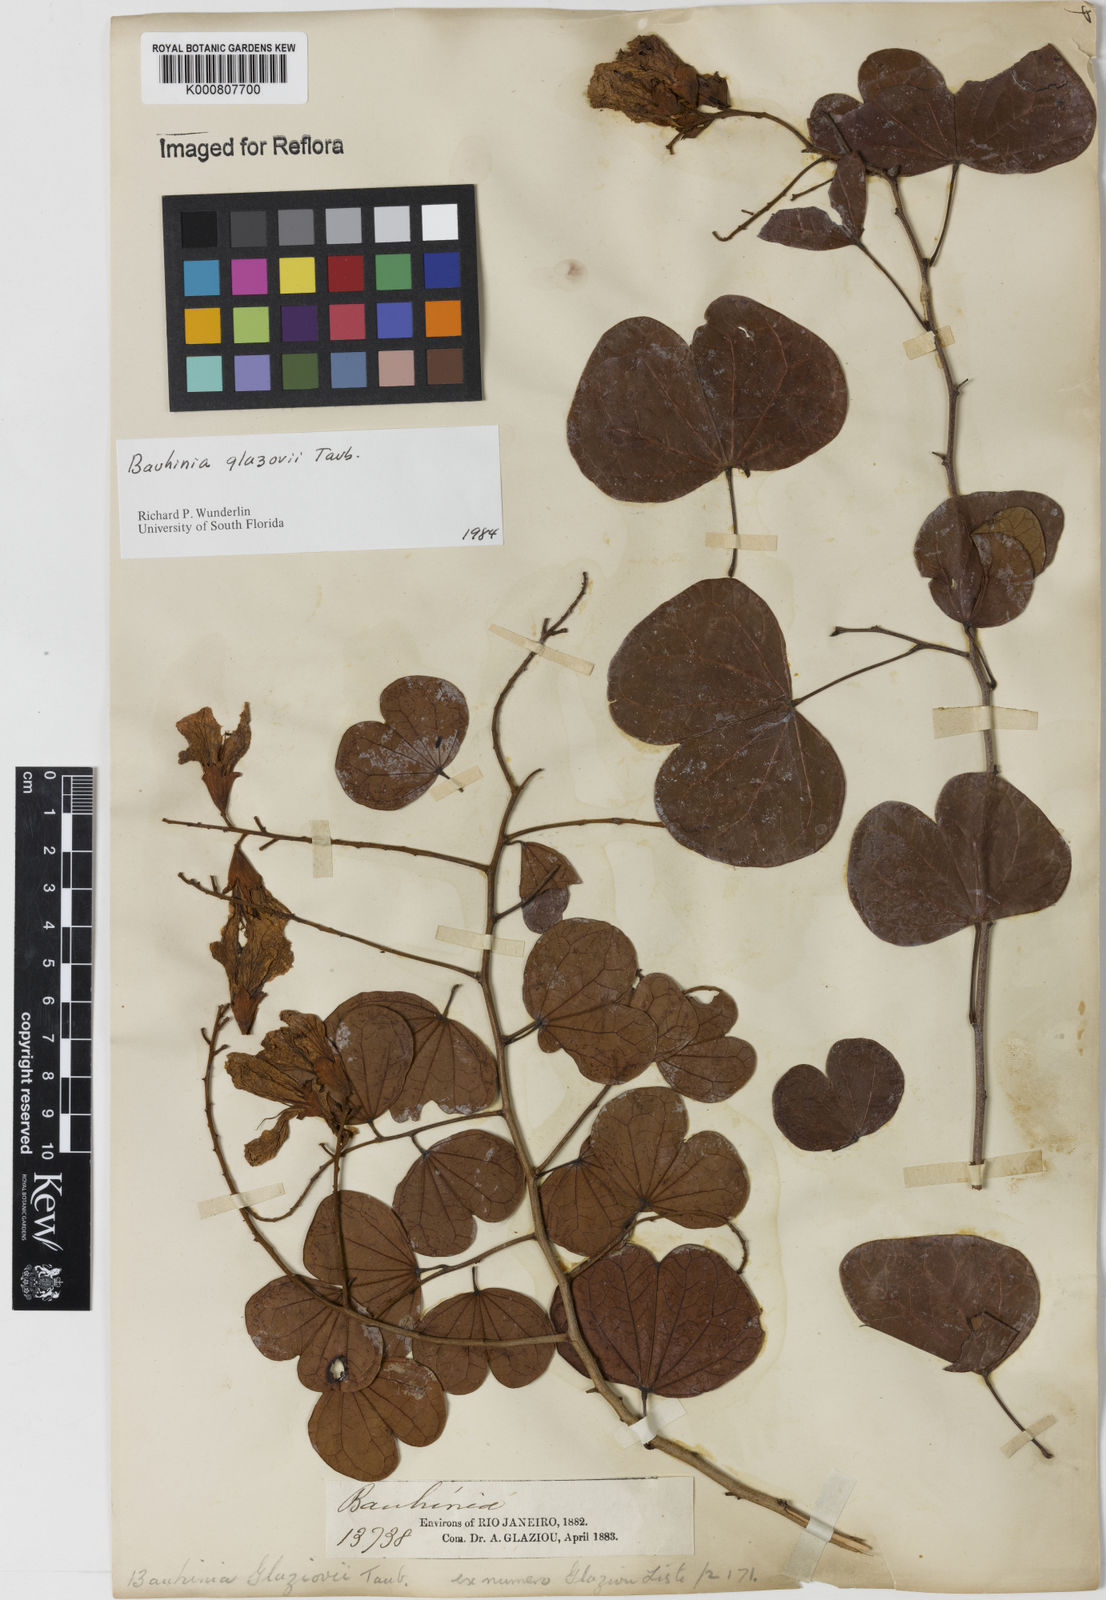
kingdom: Plantae
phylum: Tracheophyta
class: Magnoliopsida
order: Fabales
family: Fabaceae
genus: Bauhinia
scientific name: Bauhinia glaziovii
